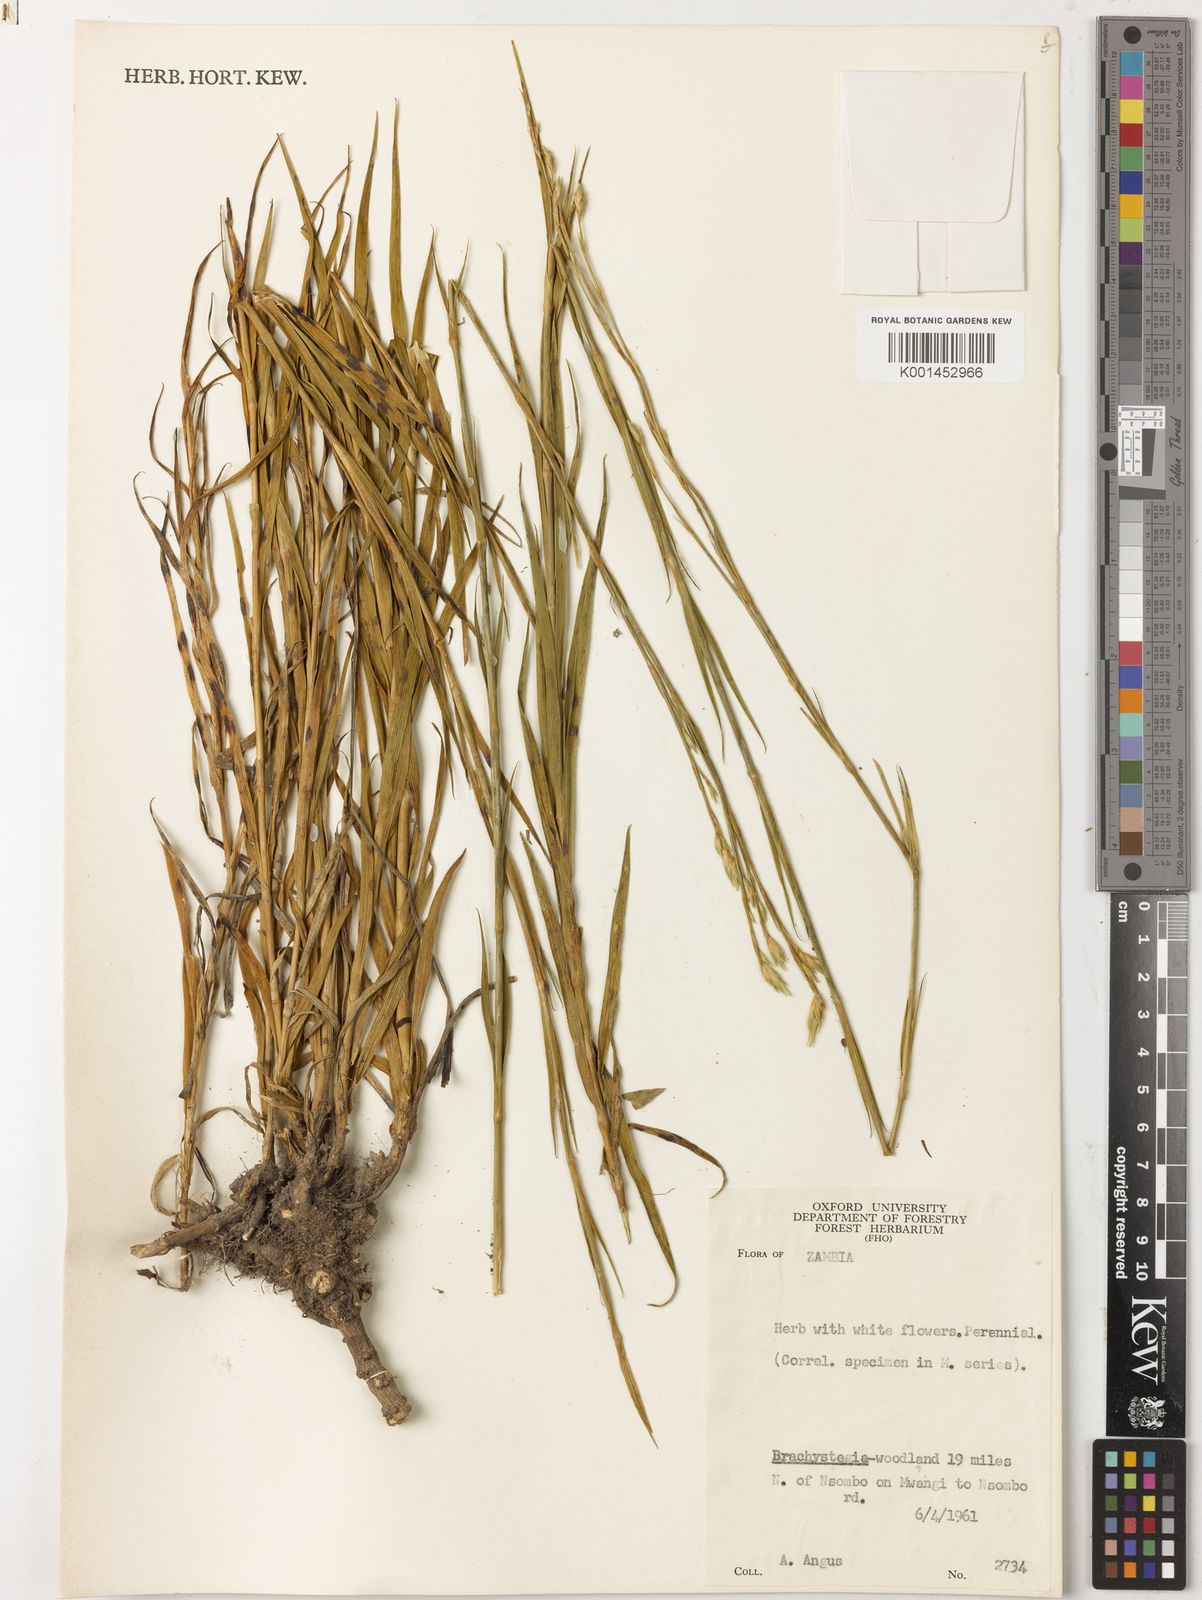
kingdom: Plantae
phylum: Tracheophyta
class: Magnoliopsida
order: Caryophyllales
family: Caryophyllaceae
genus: Dianthus
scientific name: Dianthus
